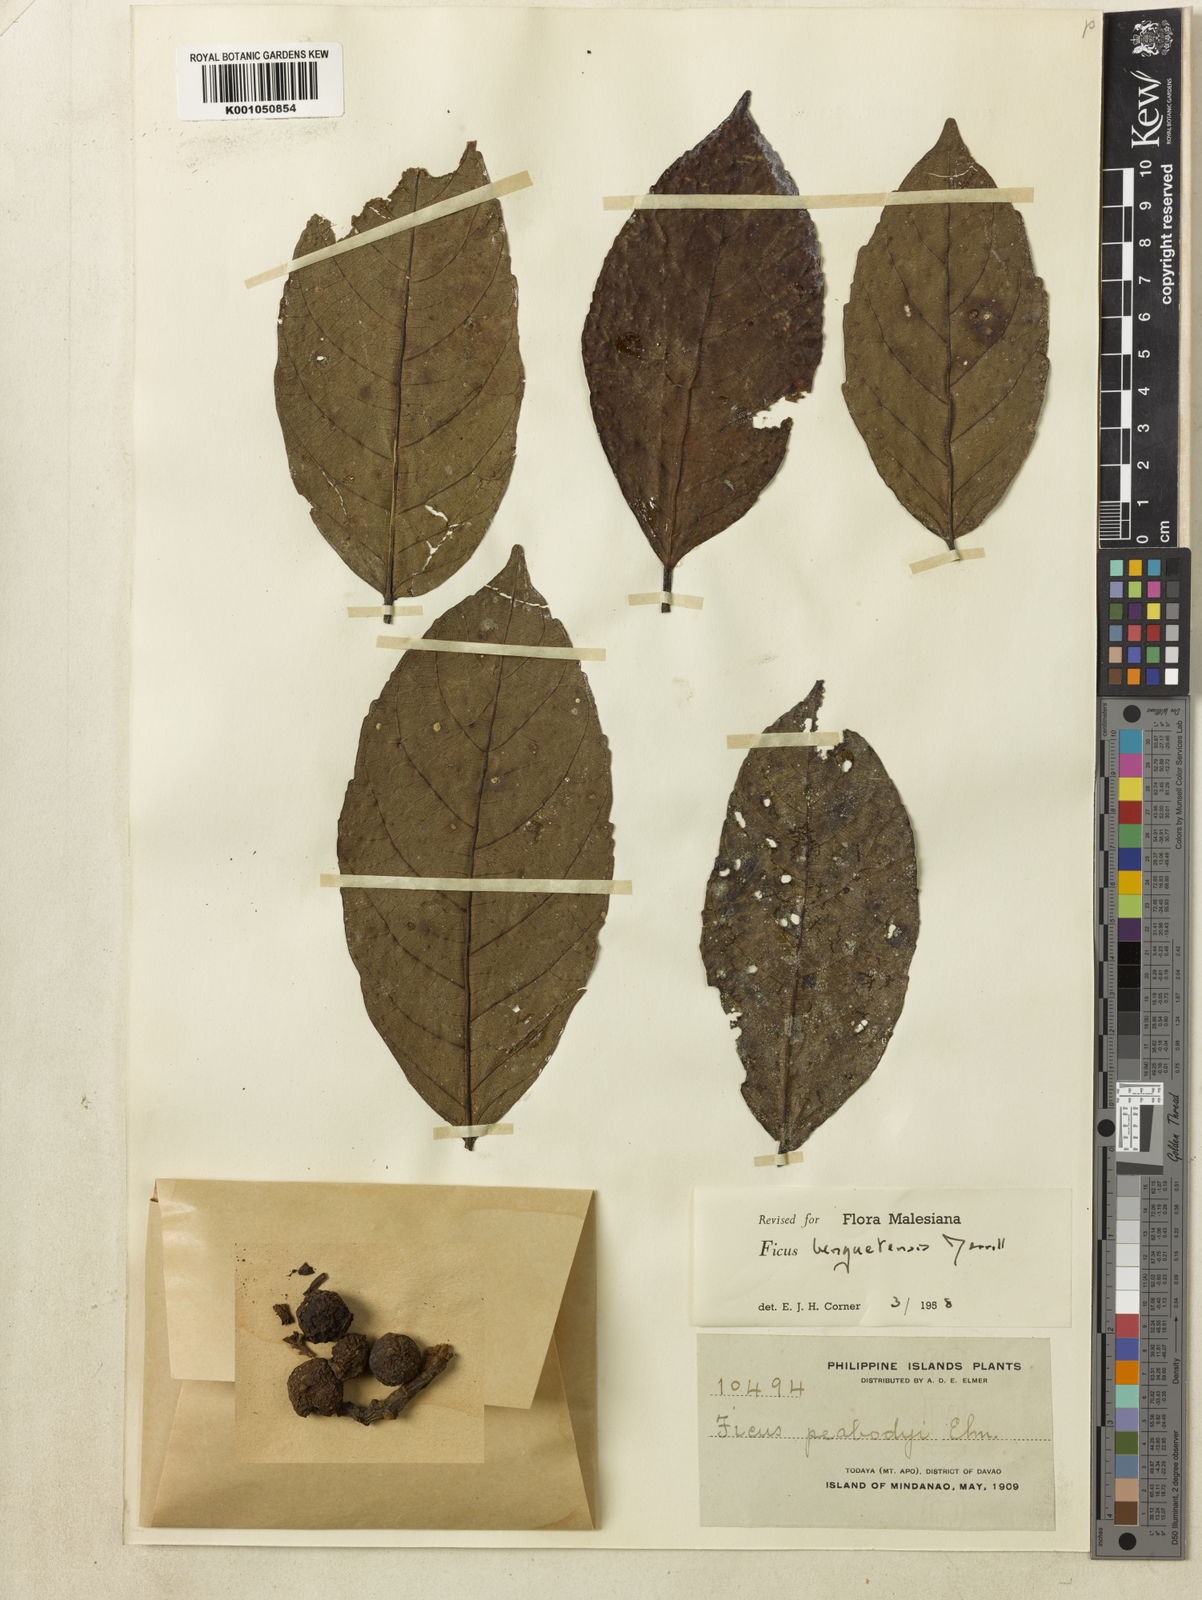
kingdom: Plantae
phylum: Tracheophyta
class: Magnoliopsida
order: Rosales
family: Moraceae
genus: Ficus
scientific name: Ficus benguetensis
